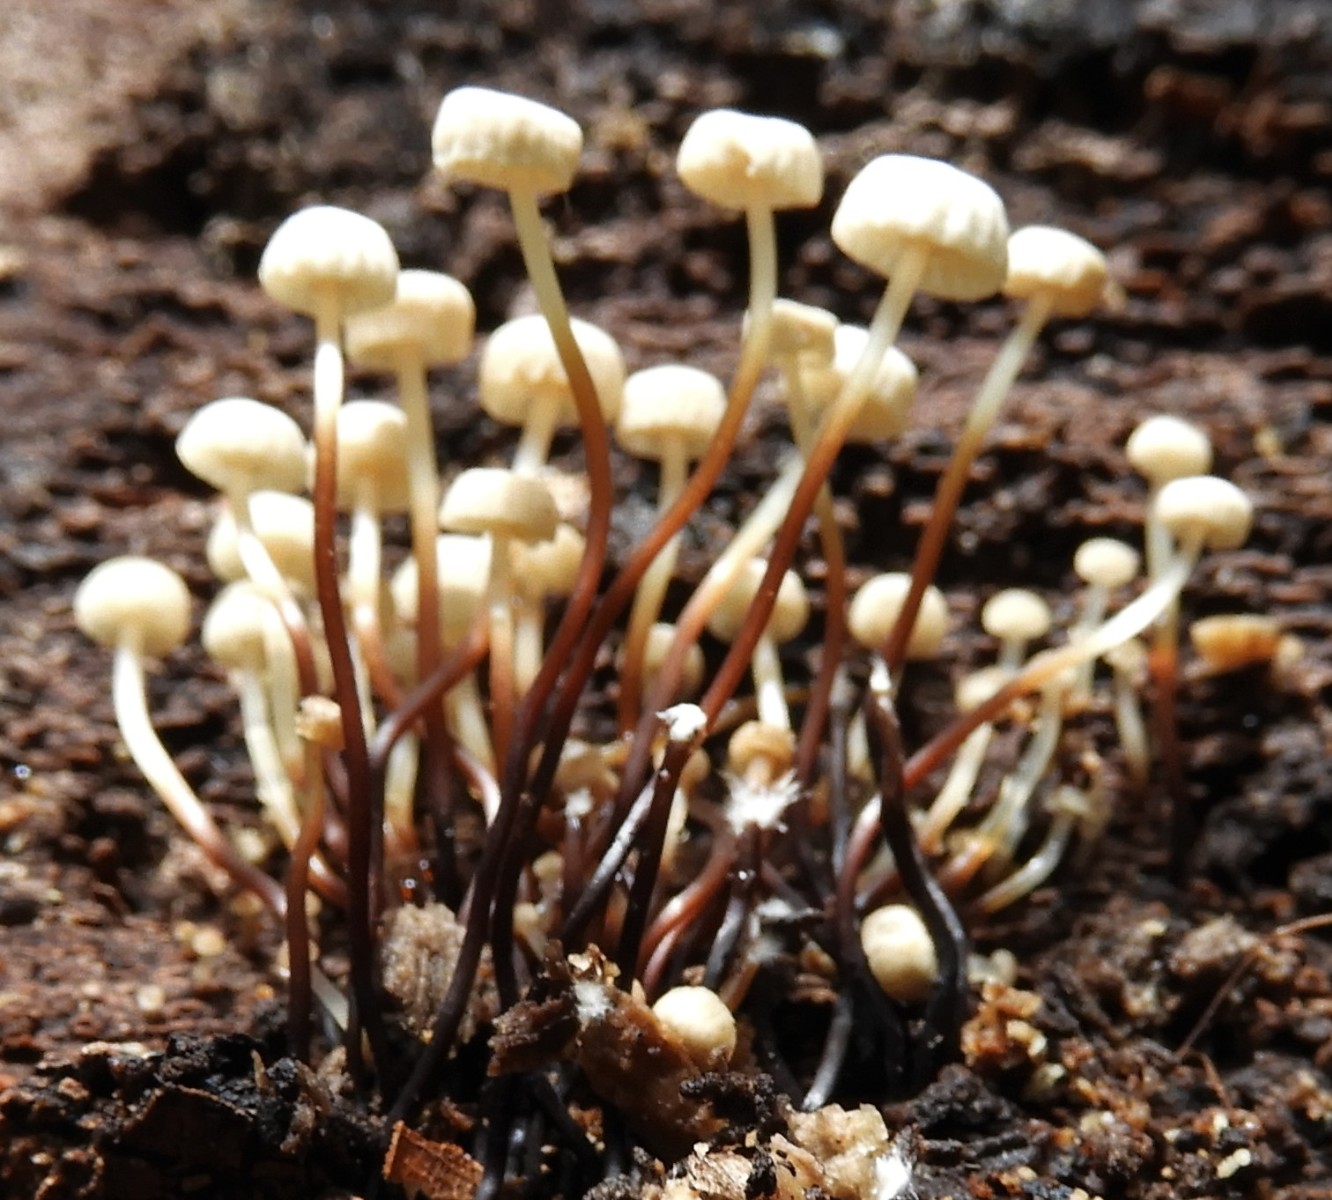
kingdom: Fungi
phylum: Basidiomycota
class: Agaricomycetes
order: Agaricales
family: Marasmiaceae
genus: Marasmius
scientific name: Marasmius rotula
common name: hjul-bruskhat
